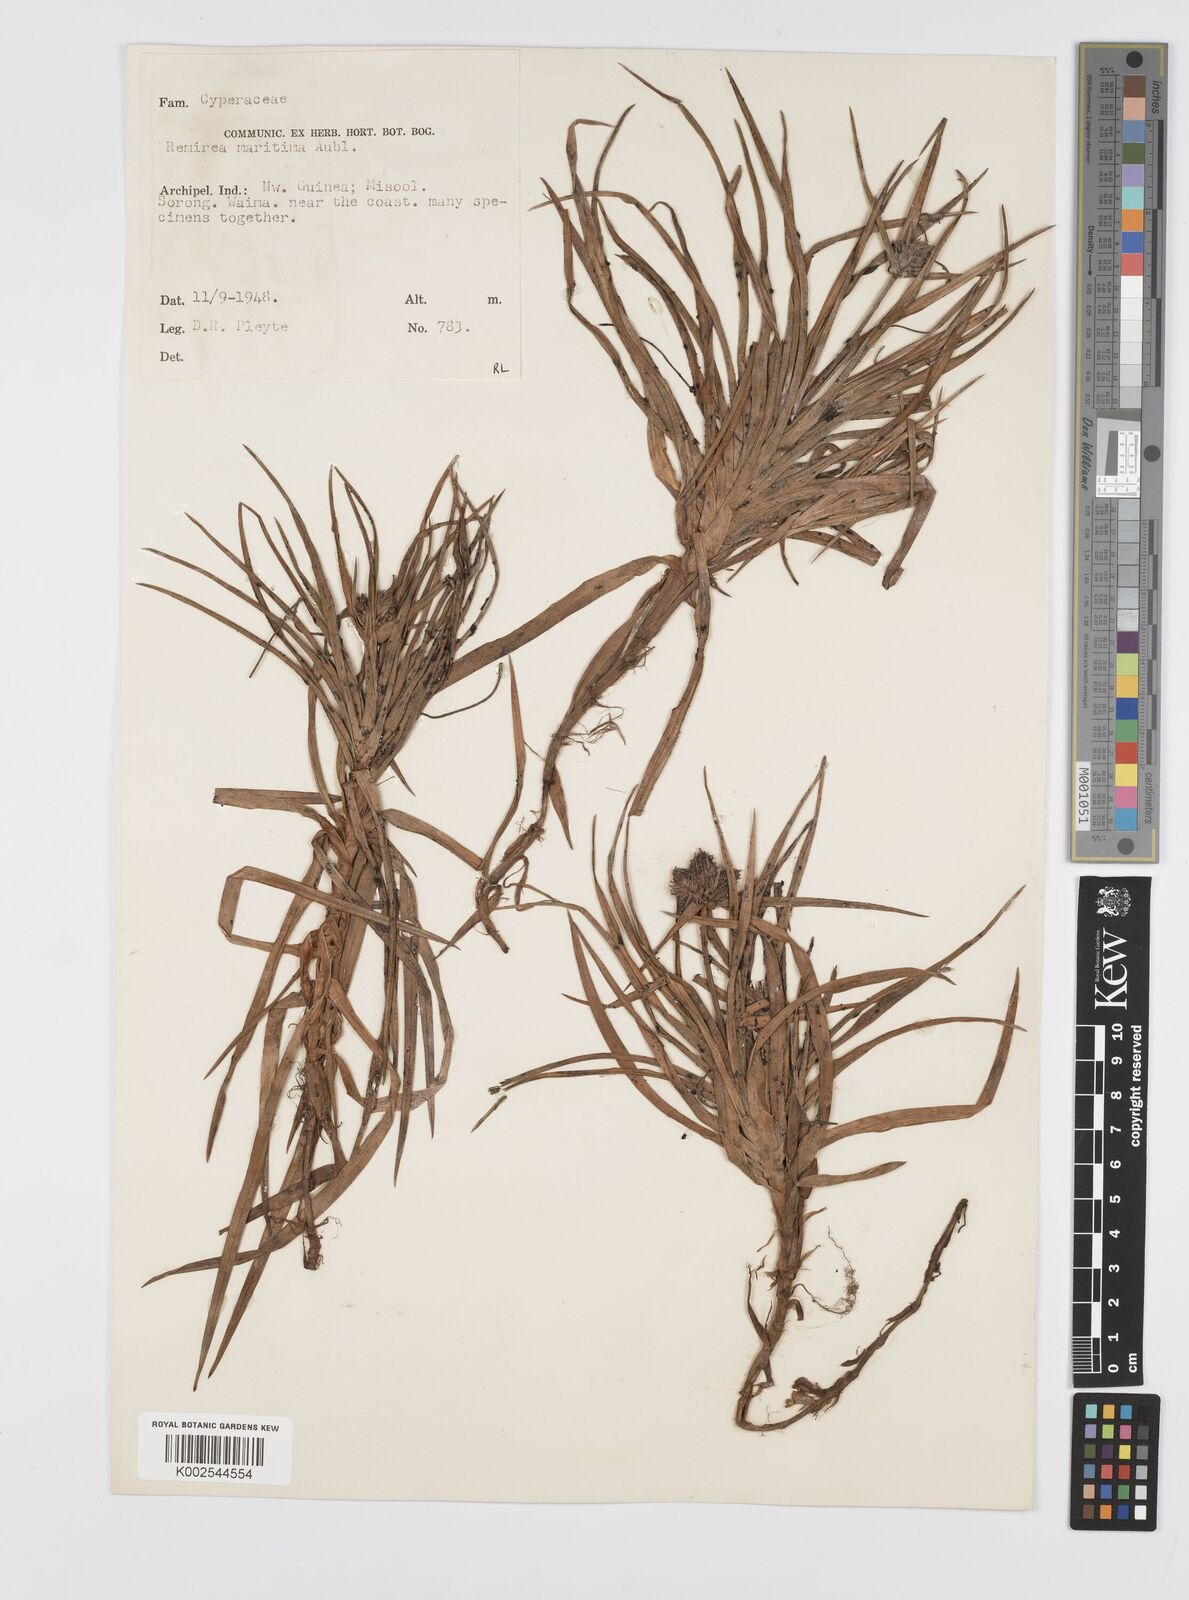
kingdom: Plantae
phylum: Tracheophyta
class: Liliopsida
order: Poales
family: Cyperaceae
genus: Cyperus
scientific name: Cyperus
